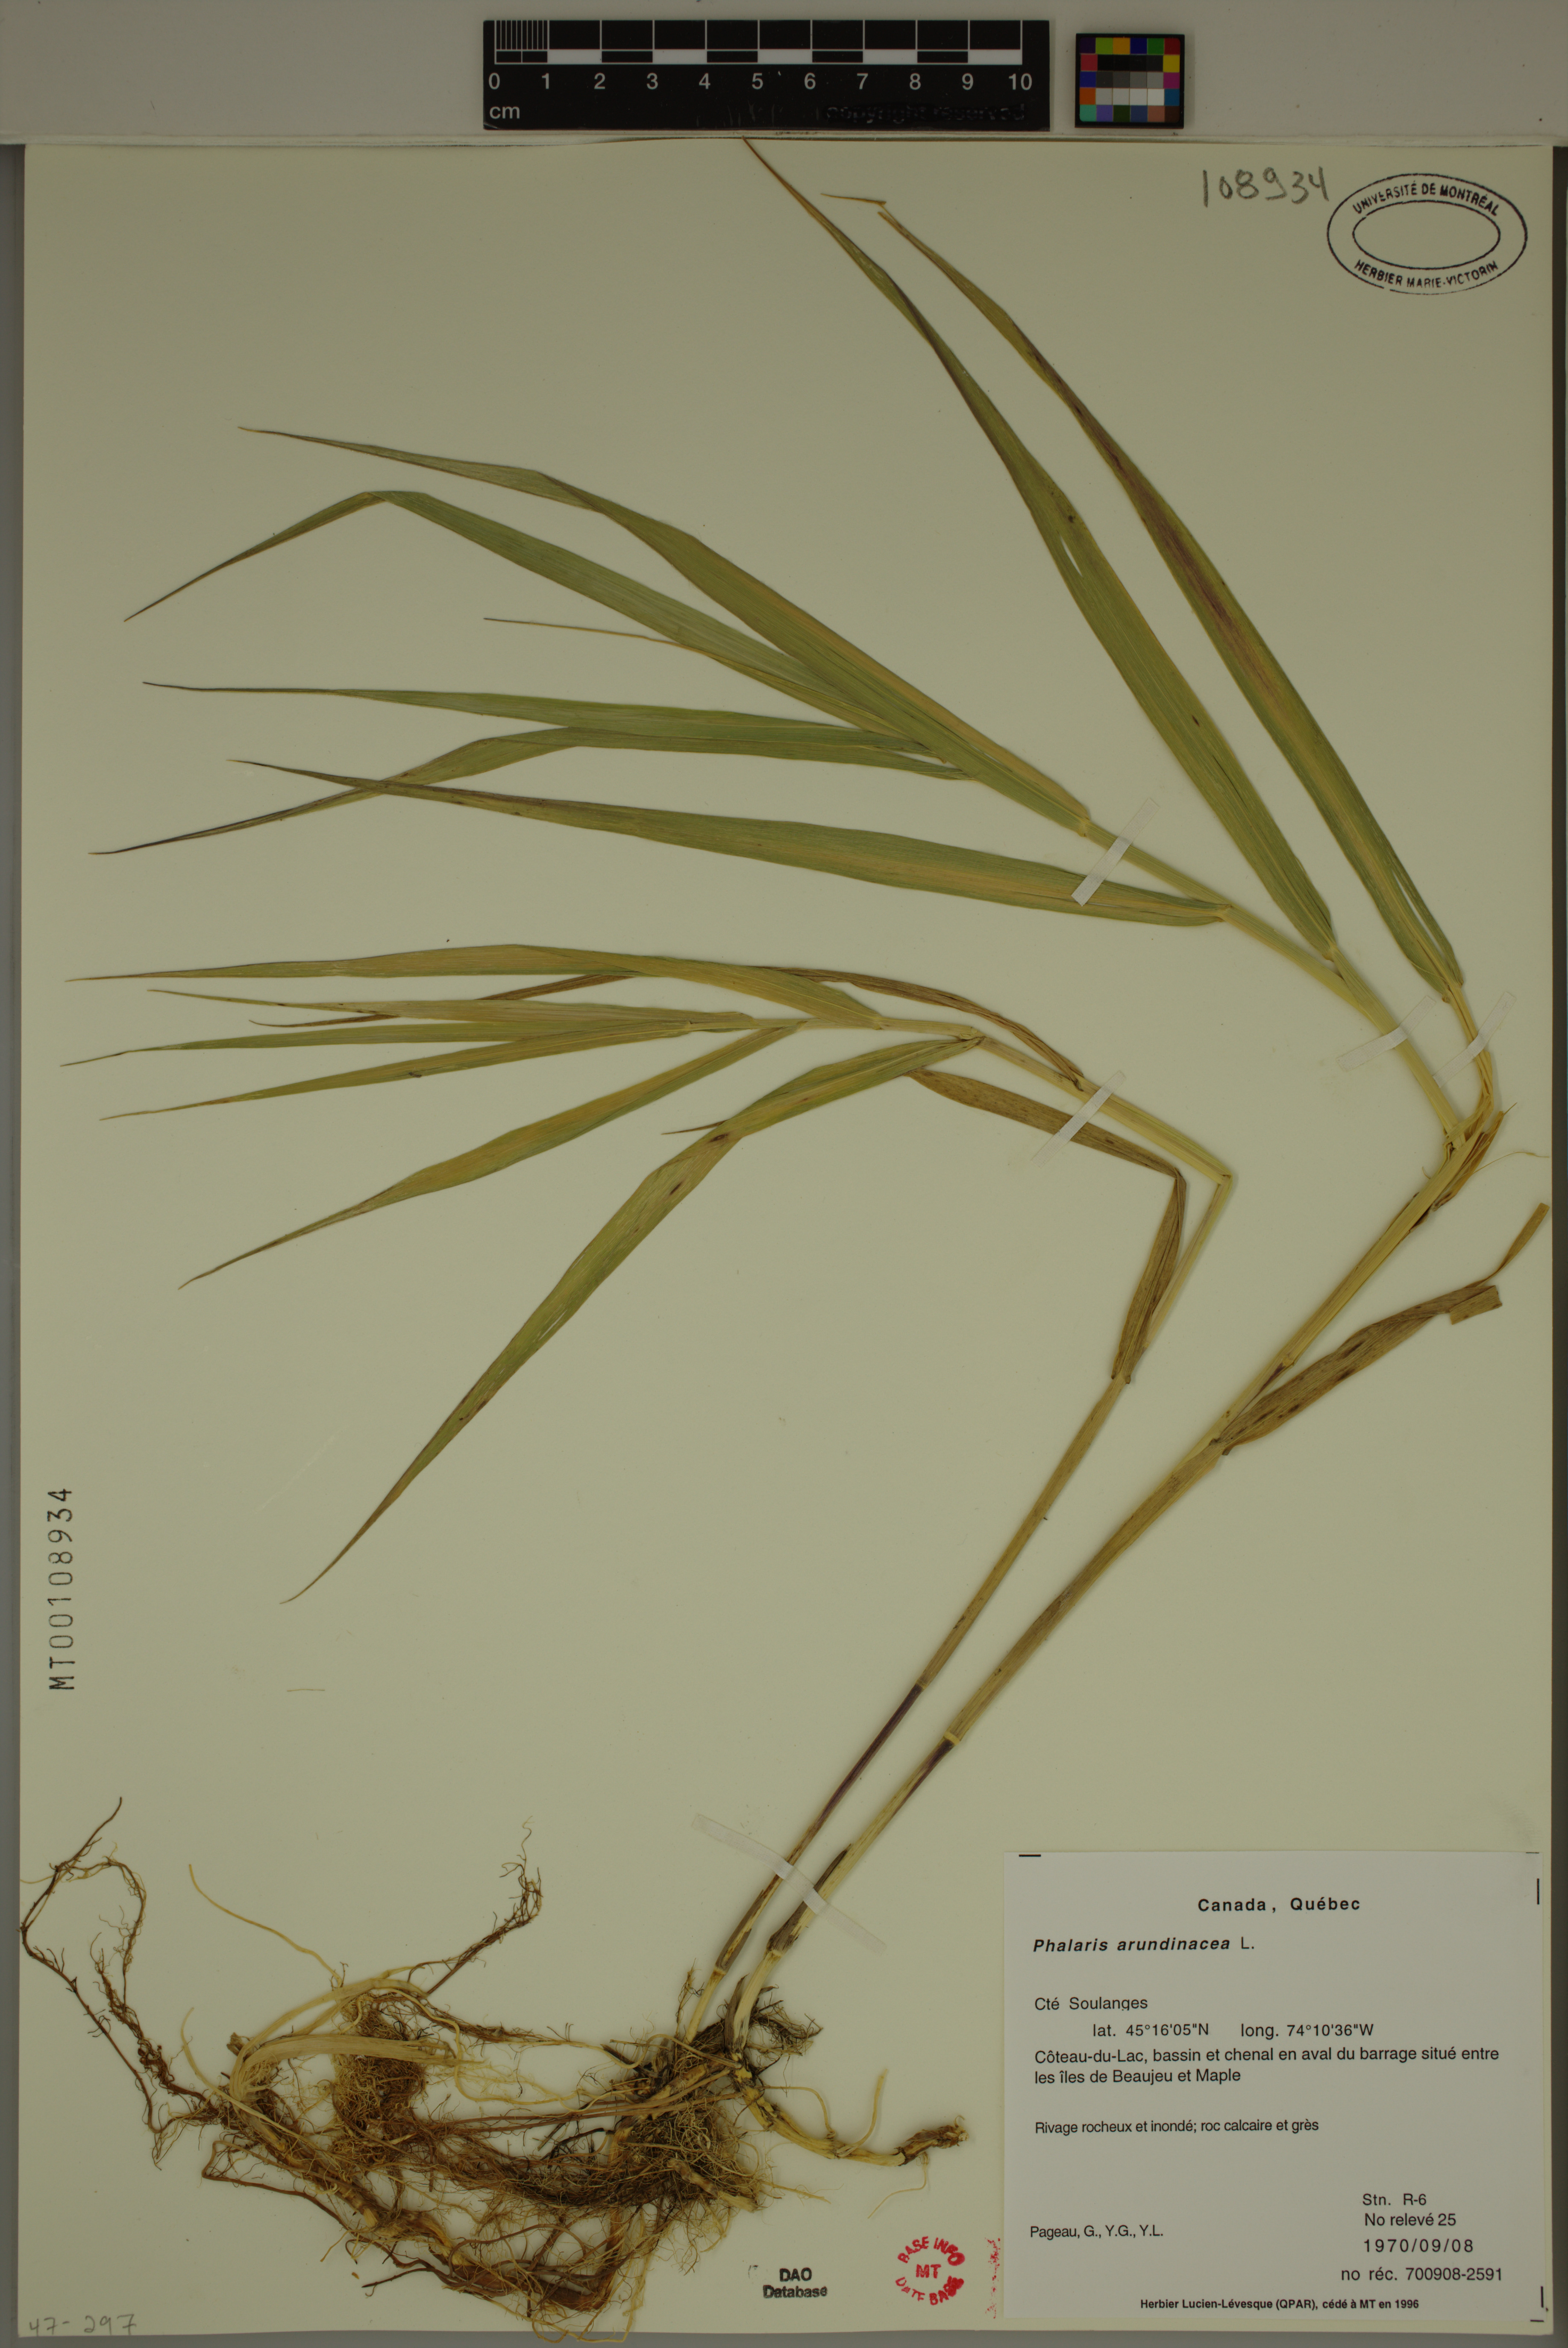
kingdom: Plantae
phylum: Tracheophyta
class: Liliopsida
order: Poales
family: Poaceae
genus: Phalaris
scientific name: Phalaris arundinacea
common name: Reed canary-grass
